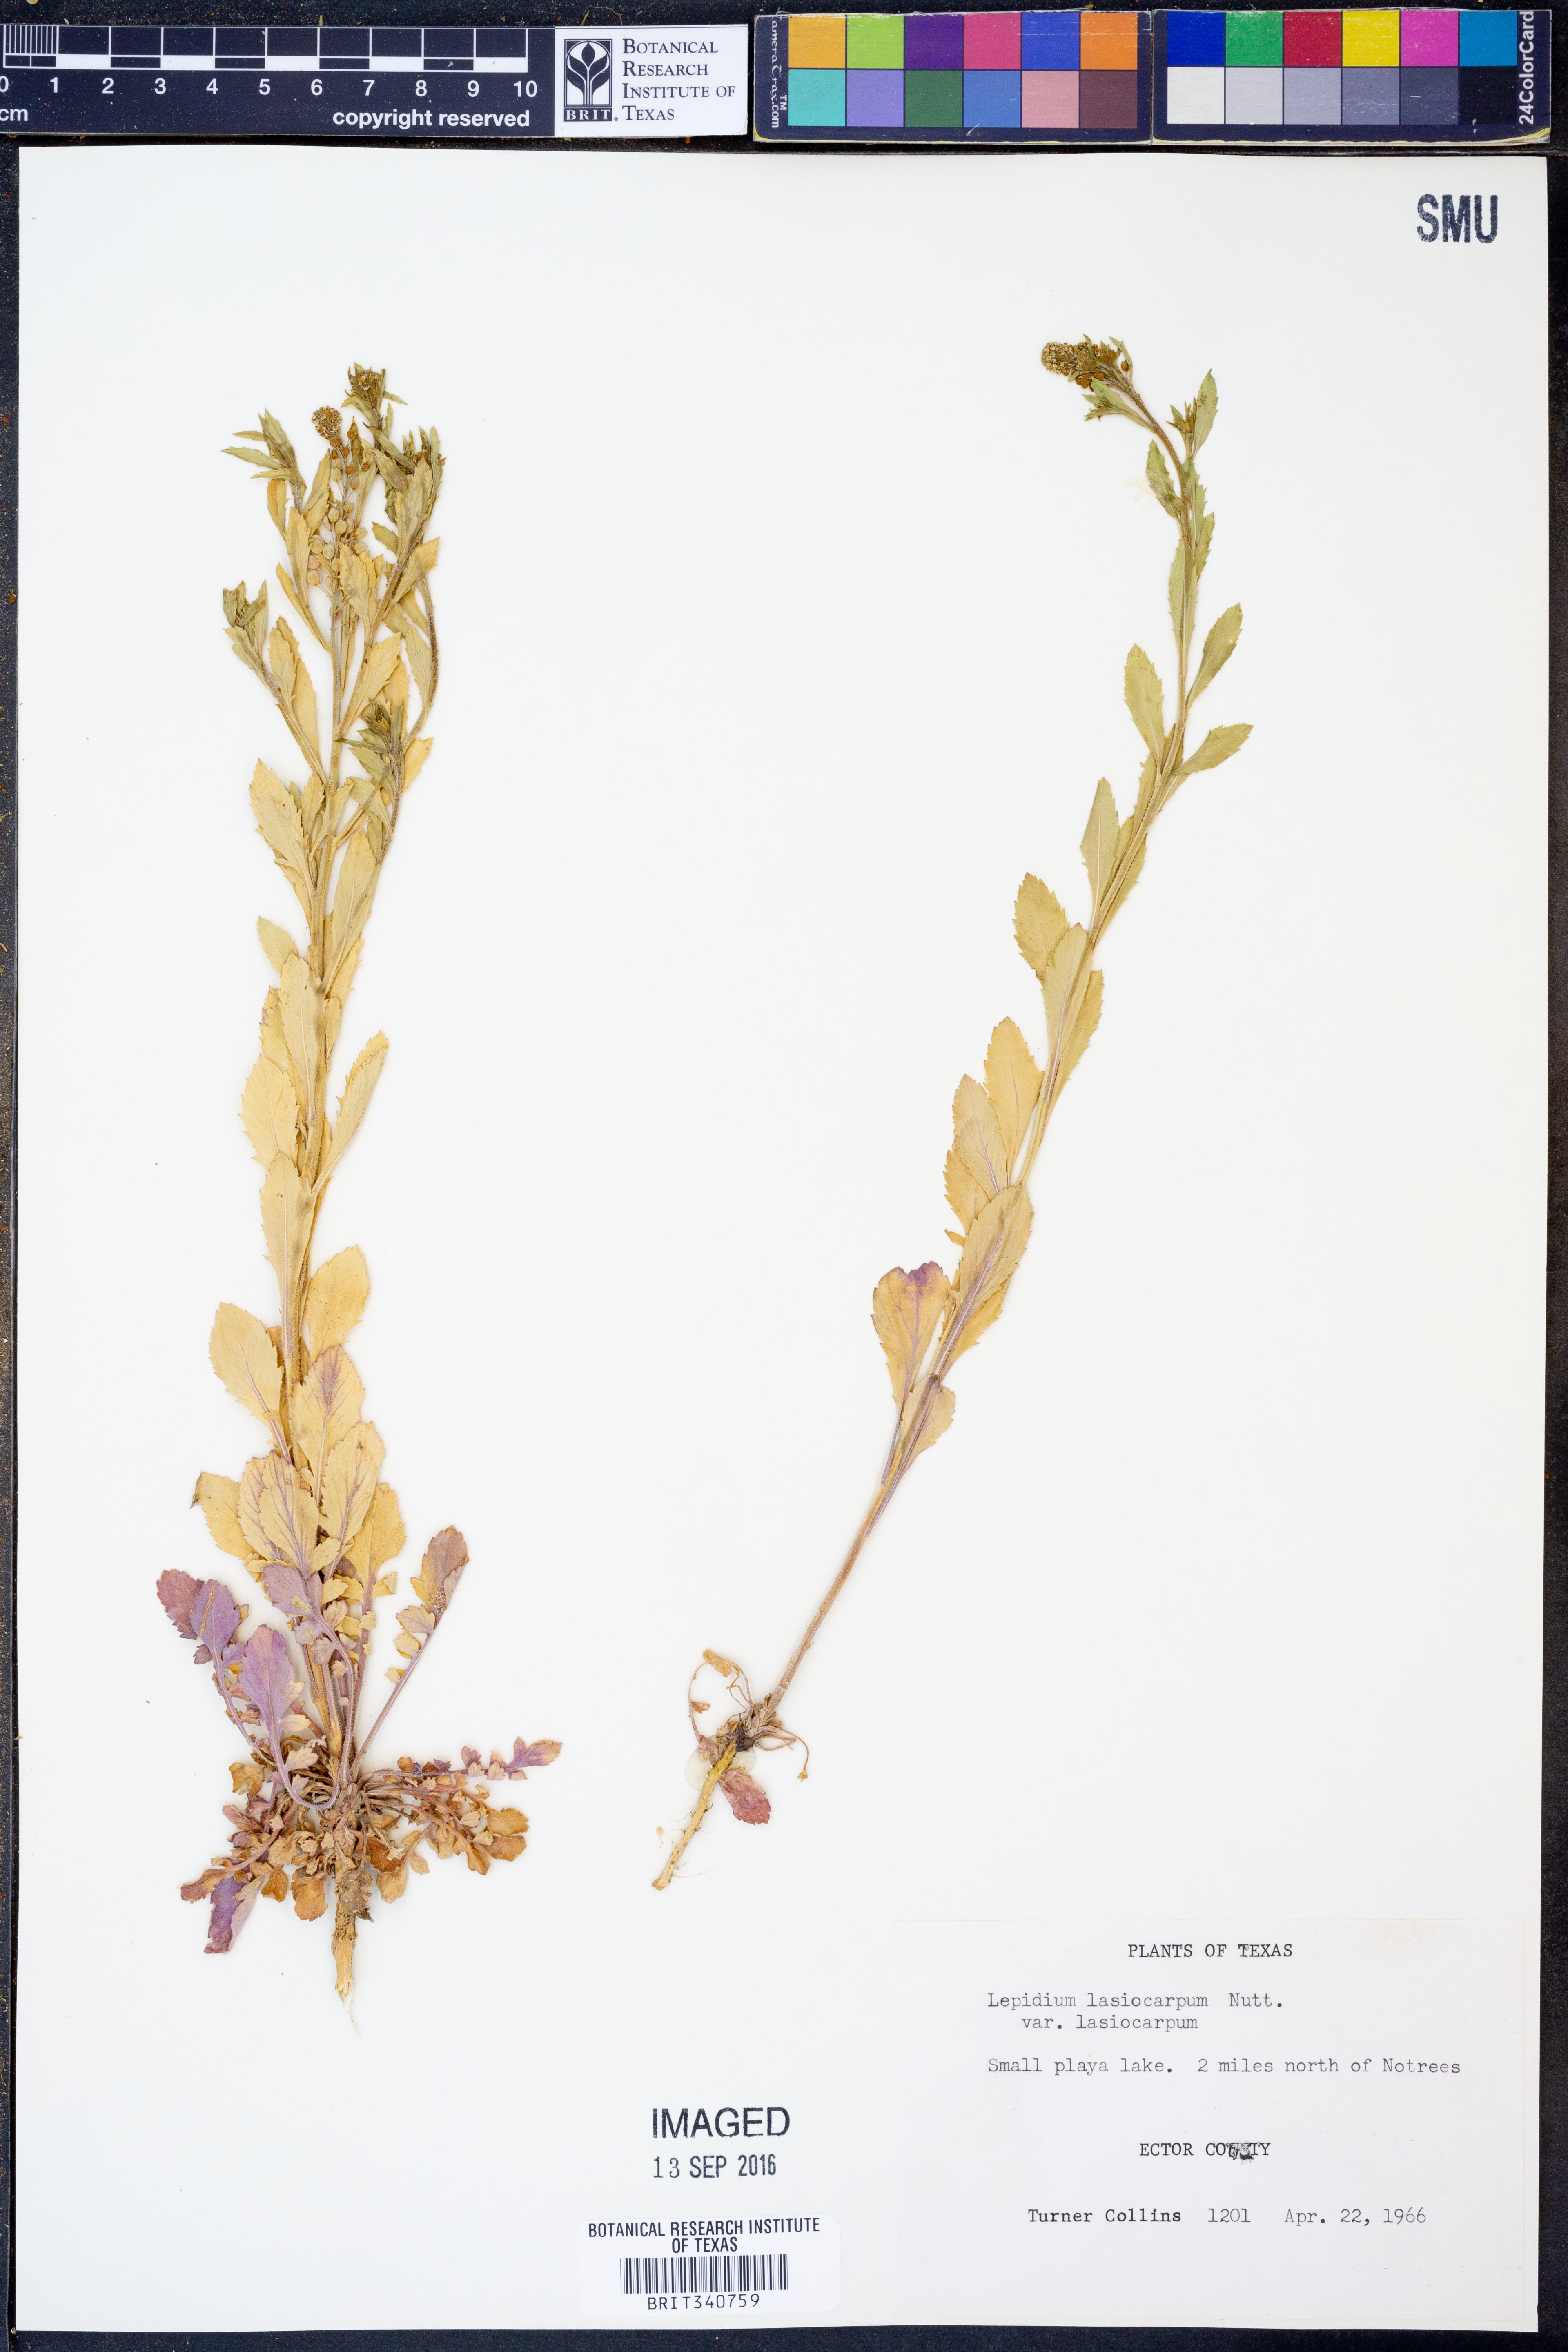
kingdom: Plantae
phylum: Tracheophyta
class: Magnoliopsida
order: Brassicales
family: Brassicaceae
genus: Lepidium
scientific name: Lepidium lasiocarpum
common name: Hairy-pod pepperwort
